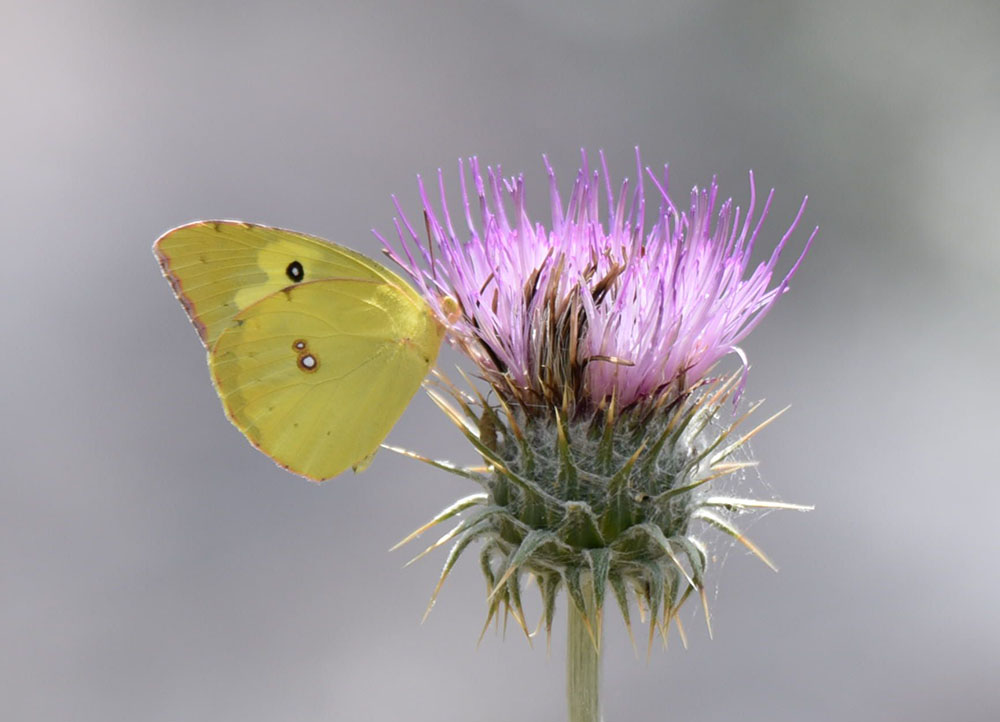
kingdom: Animalia
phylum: Arthropoda
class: Insecta
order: Lepidoptera
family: Pieridae
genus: Zerene
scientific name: Zerene cesonia
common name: Southern dogface
